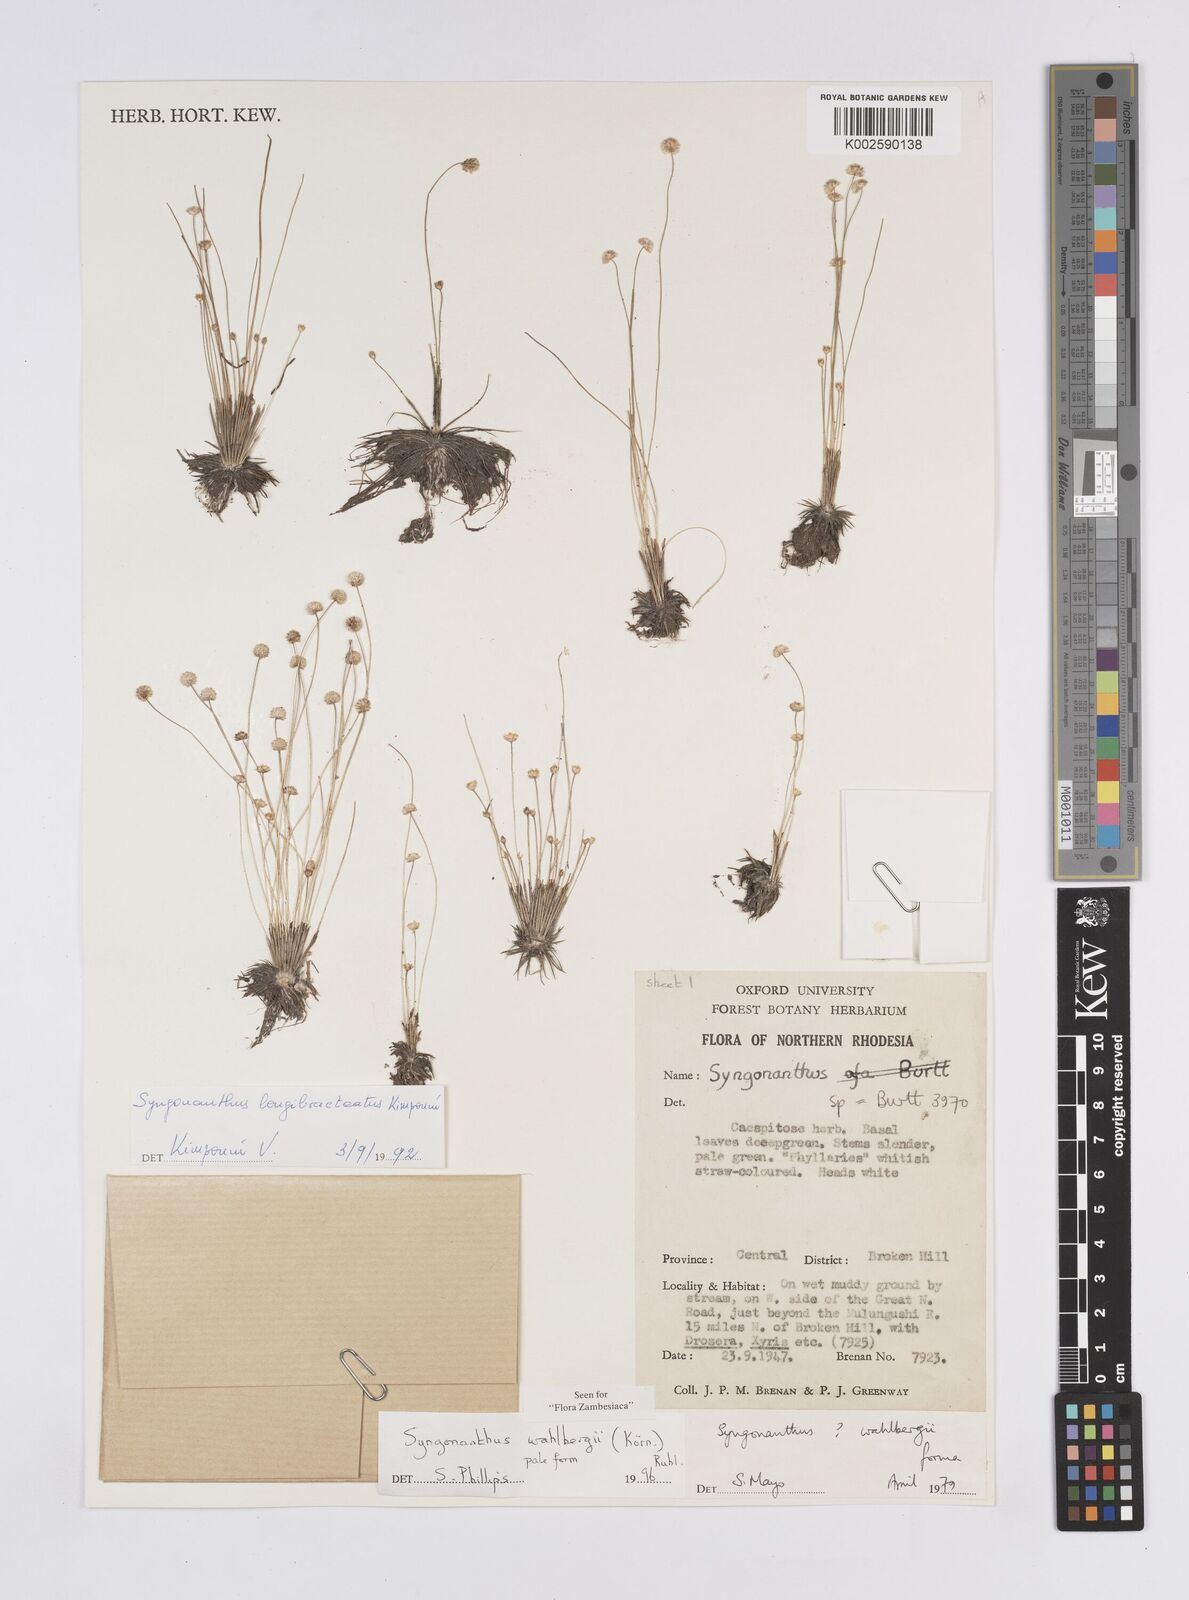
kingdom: Plantae
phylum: Tracheophyta
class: Liliopsida
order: Poales
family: Eriocaulaceae
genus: Syngonanthus
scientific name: Syngonanthus wahlbergii
